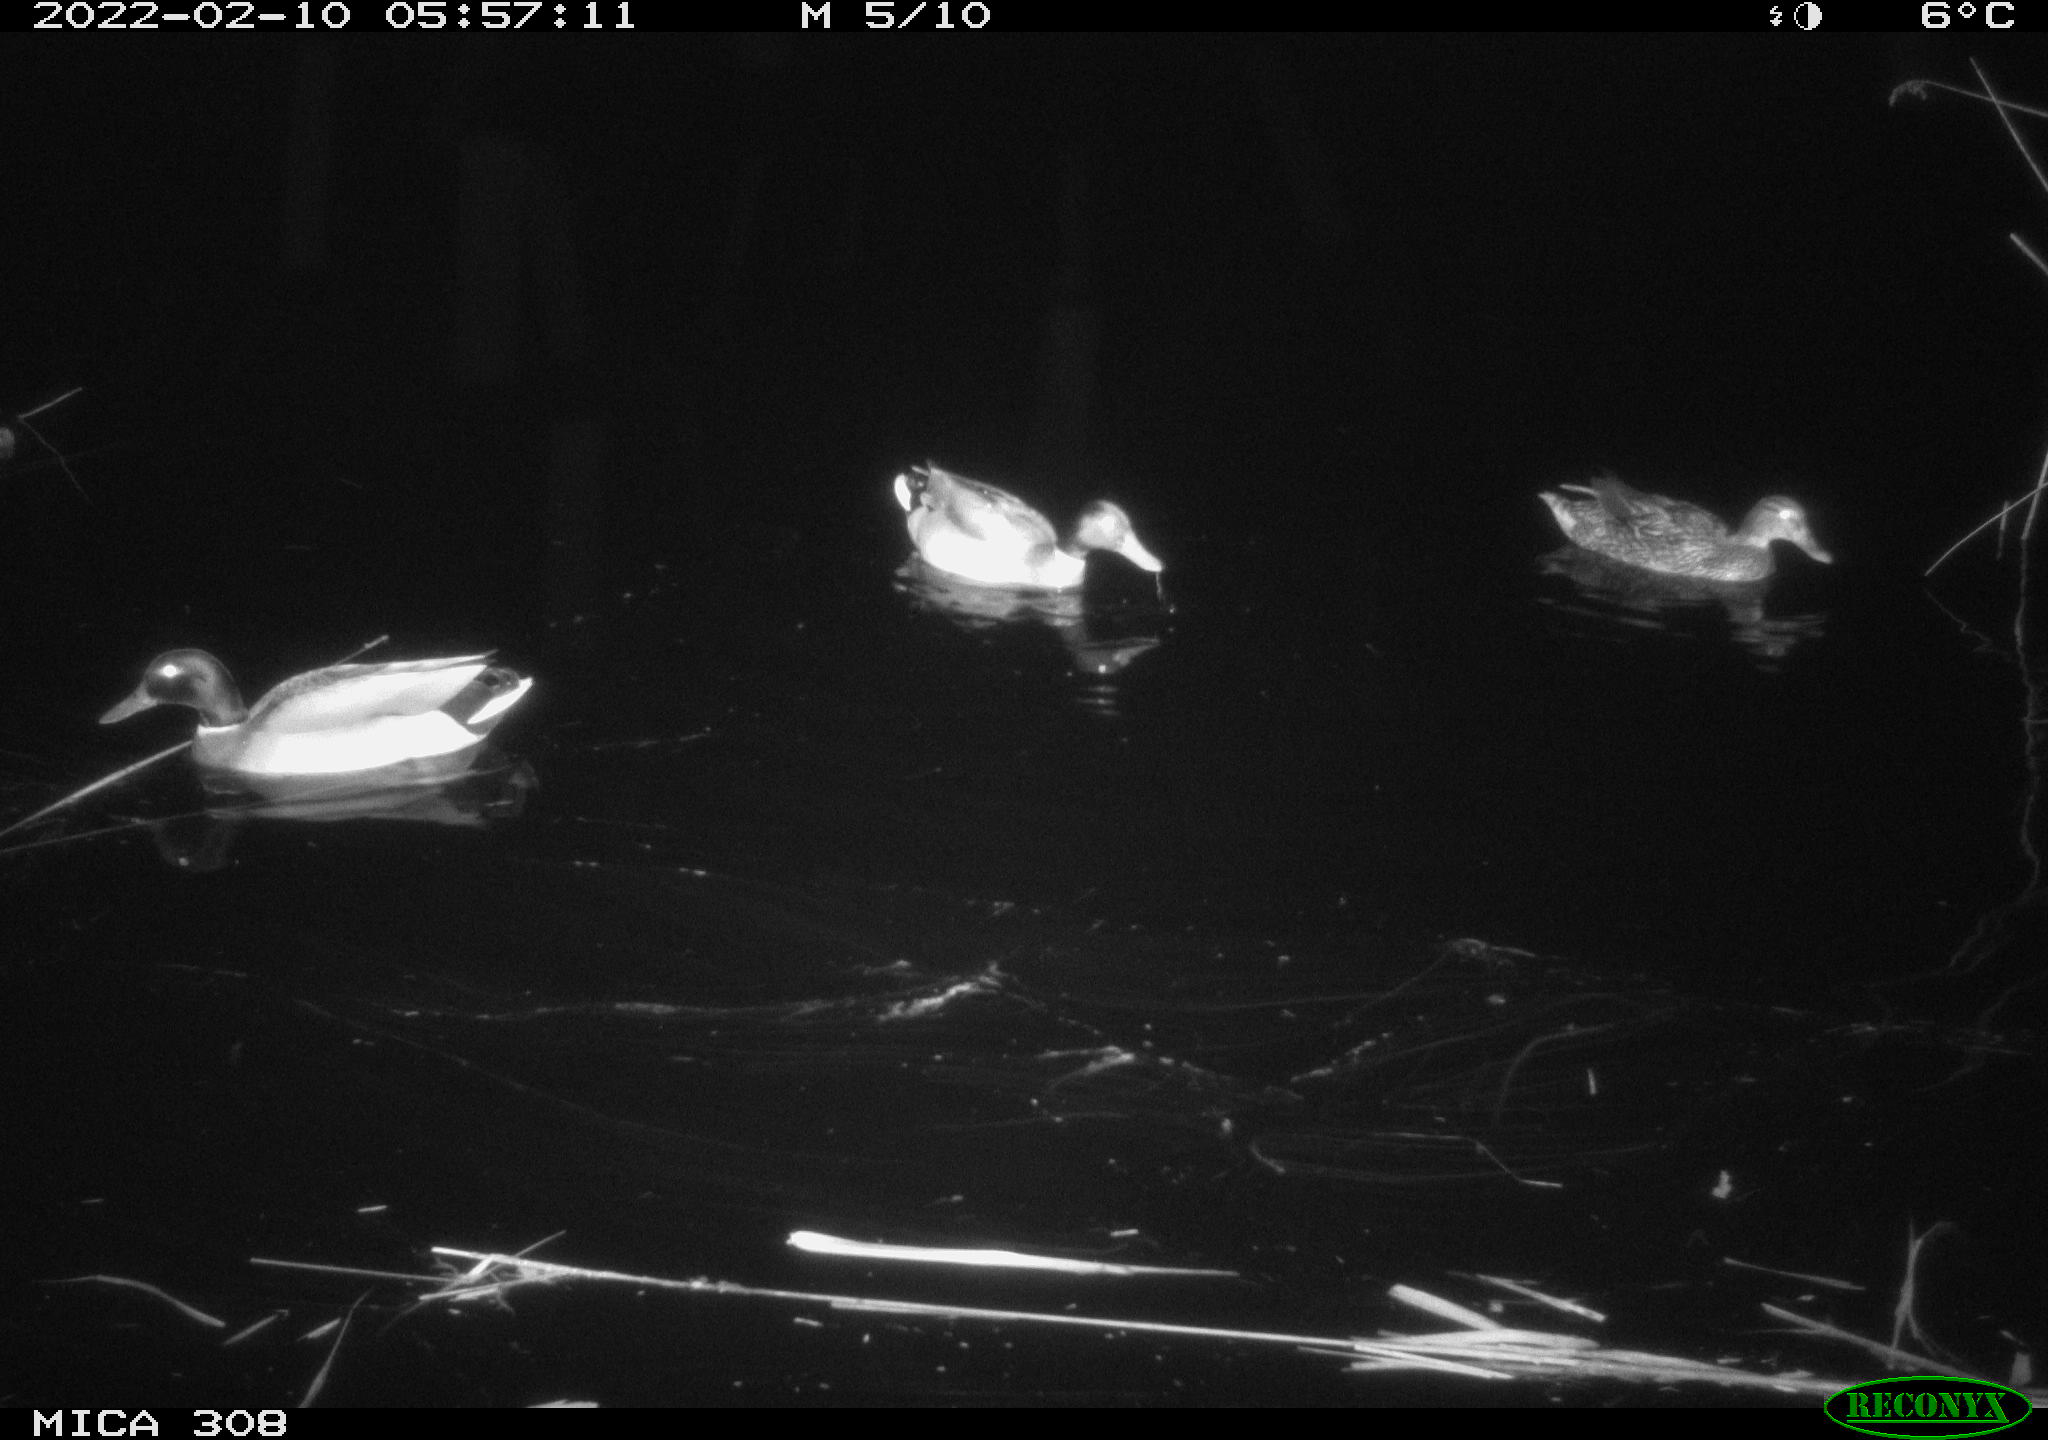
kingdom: Animalia
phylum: Chordata
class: Aves
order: Anseriformes
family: Anatidae
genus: Anas
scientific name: Anas platyrhynchos
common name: Mallard
